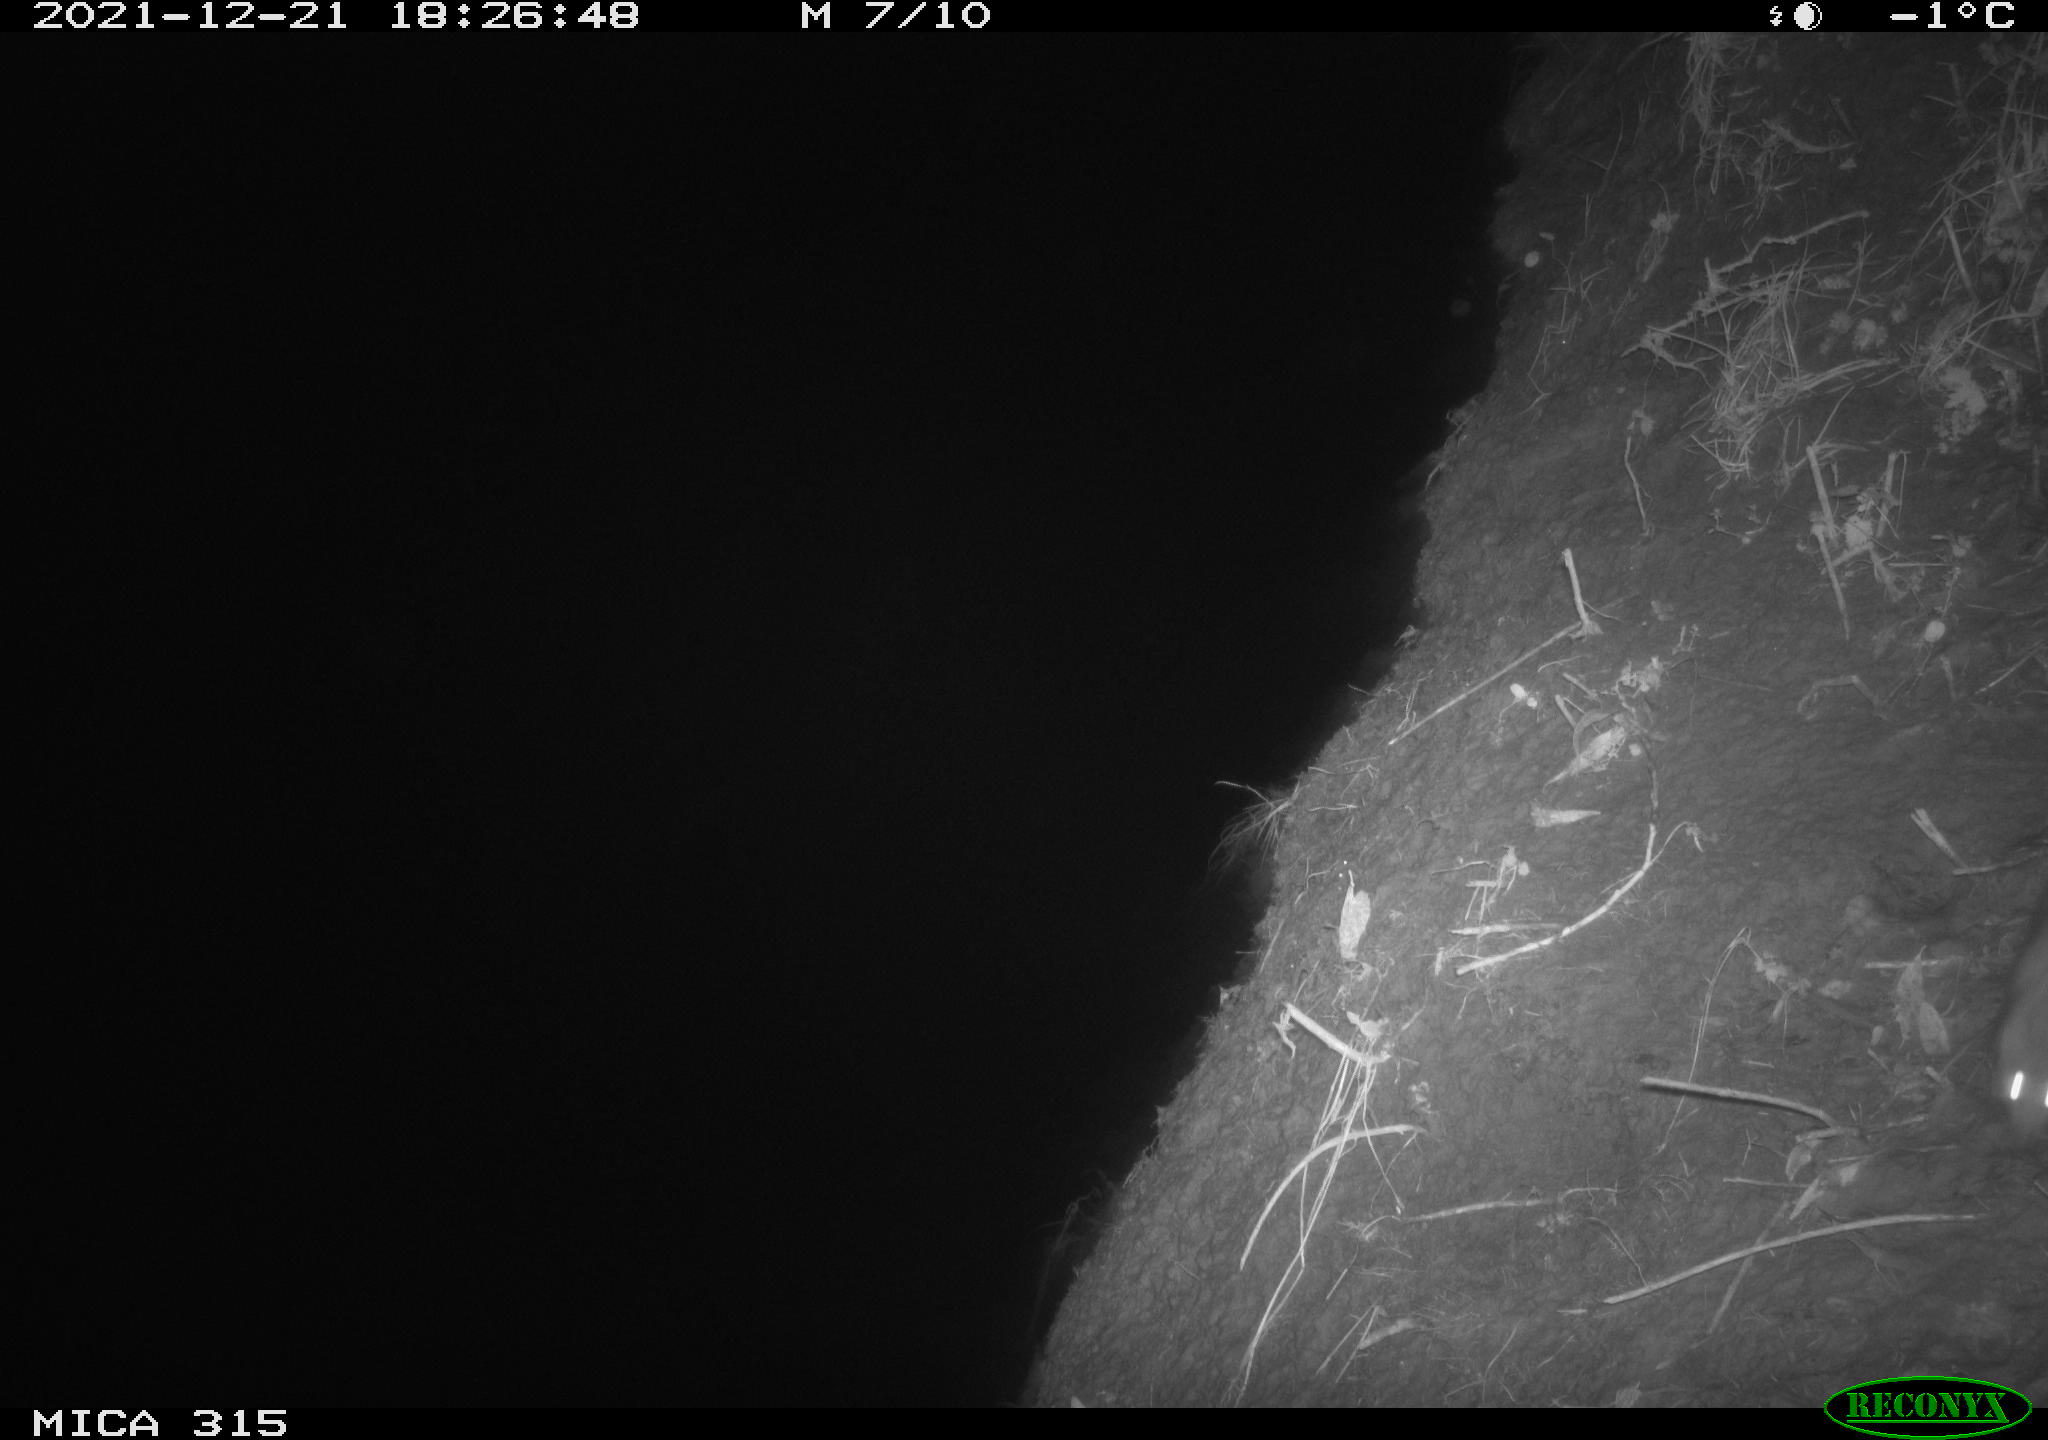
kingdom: Animalia
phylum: Chordata
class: Mammalia
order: Rodentia
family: Muridae
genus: Rattus
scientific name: Rattus norvegicus
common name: Brown rat
